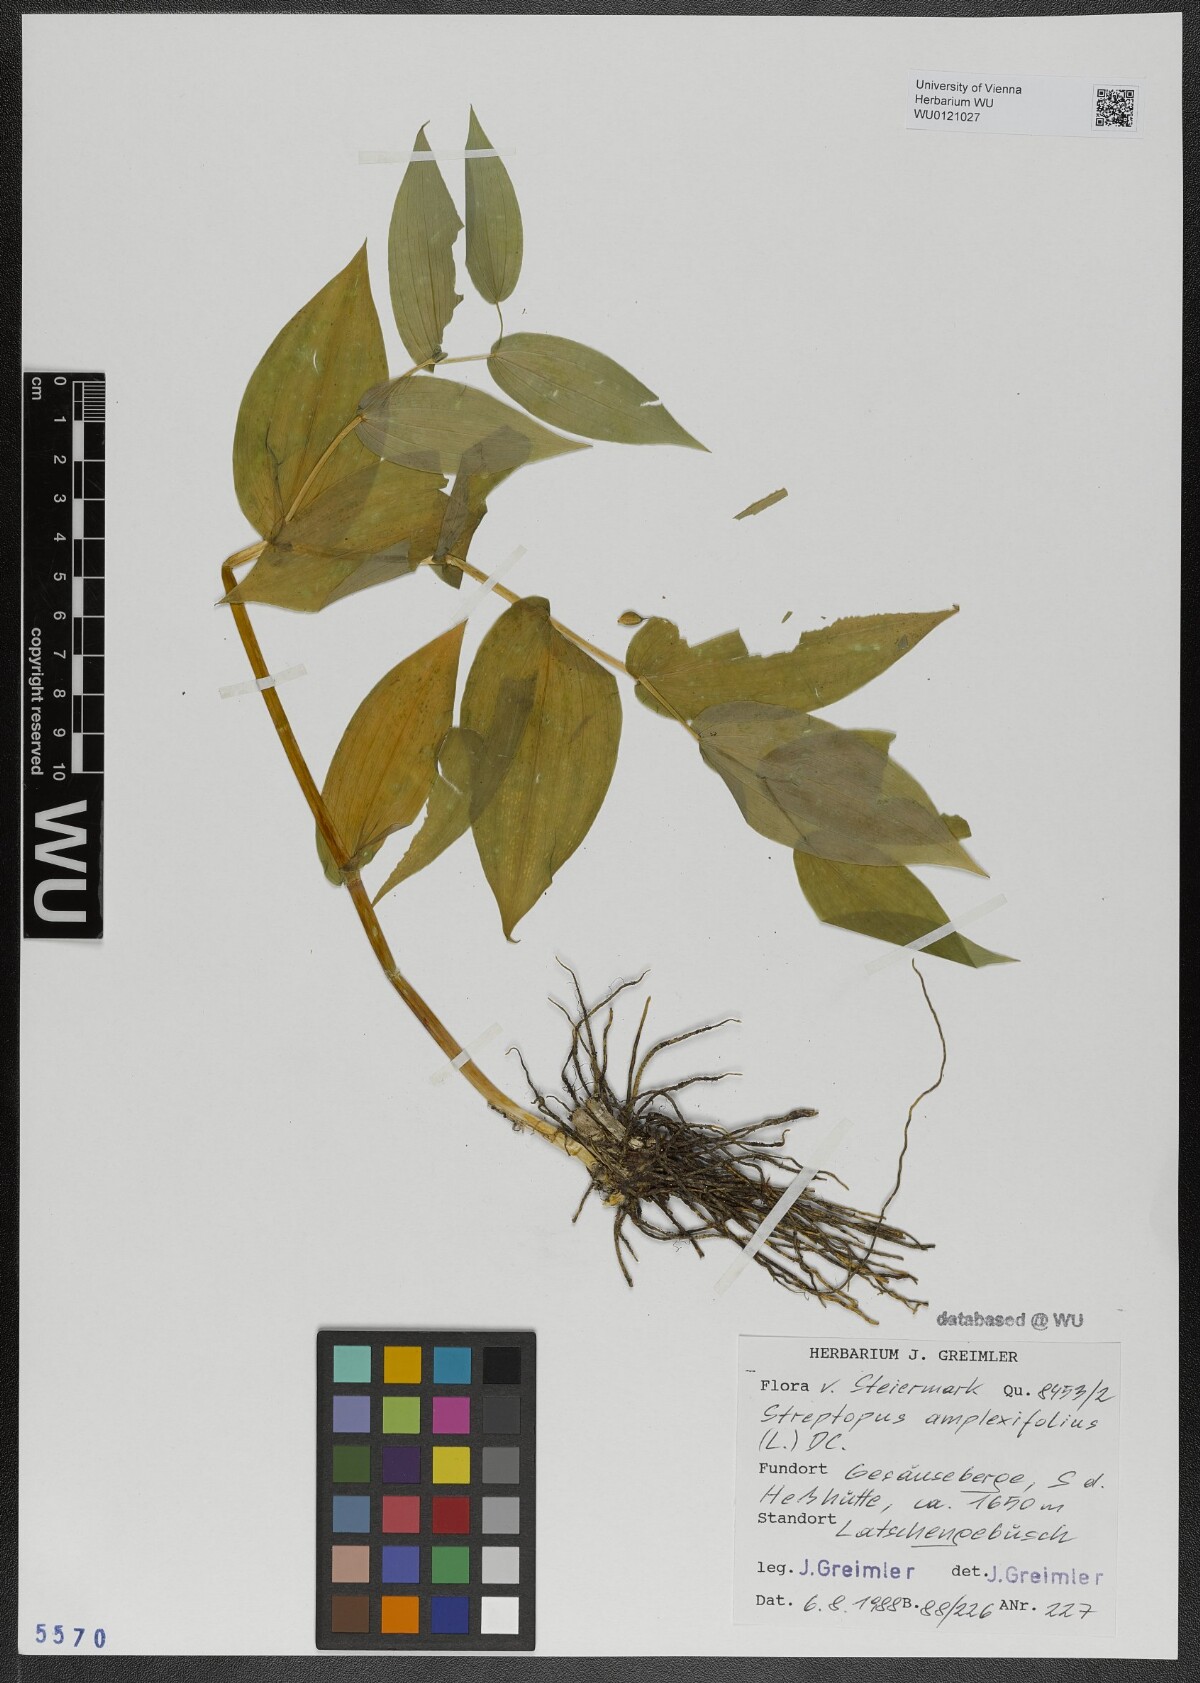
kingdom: Plantae
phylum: Tracheophyta
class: Liliopsida
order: Liliales
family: Liliaceae
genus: Streptopus
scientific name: Streptopus amplexifolius
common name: Clasp twisted stalk
